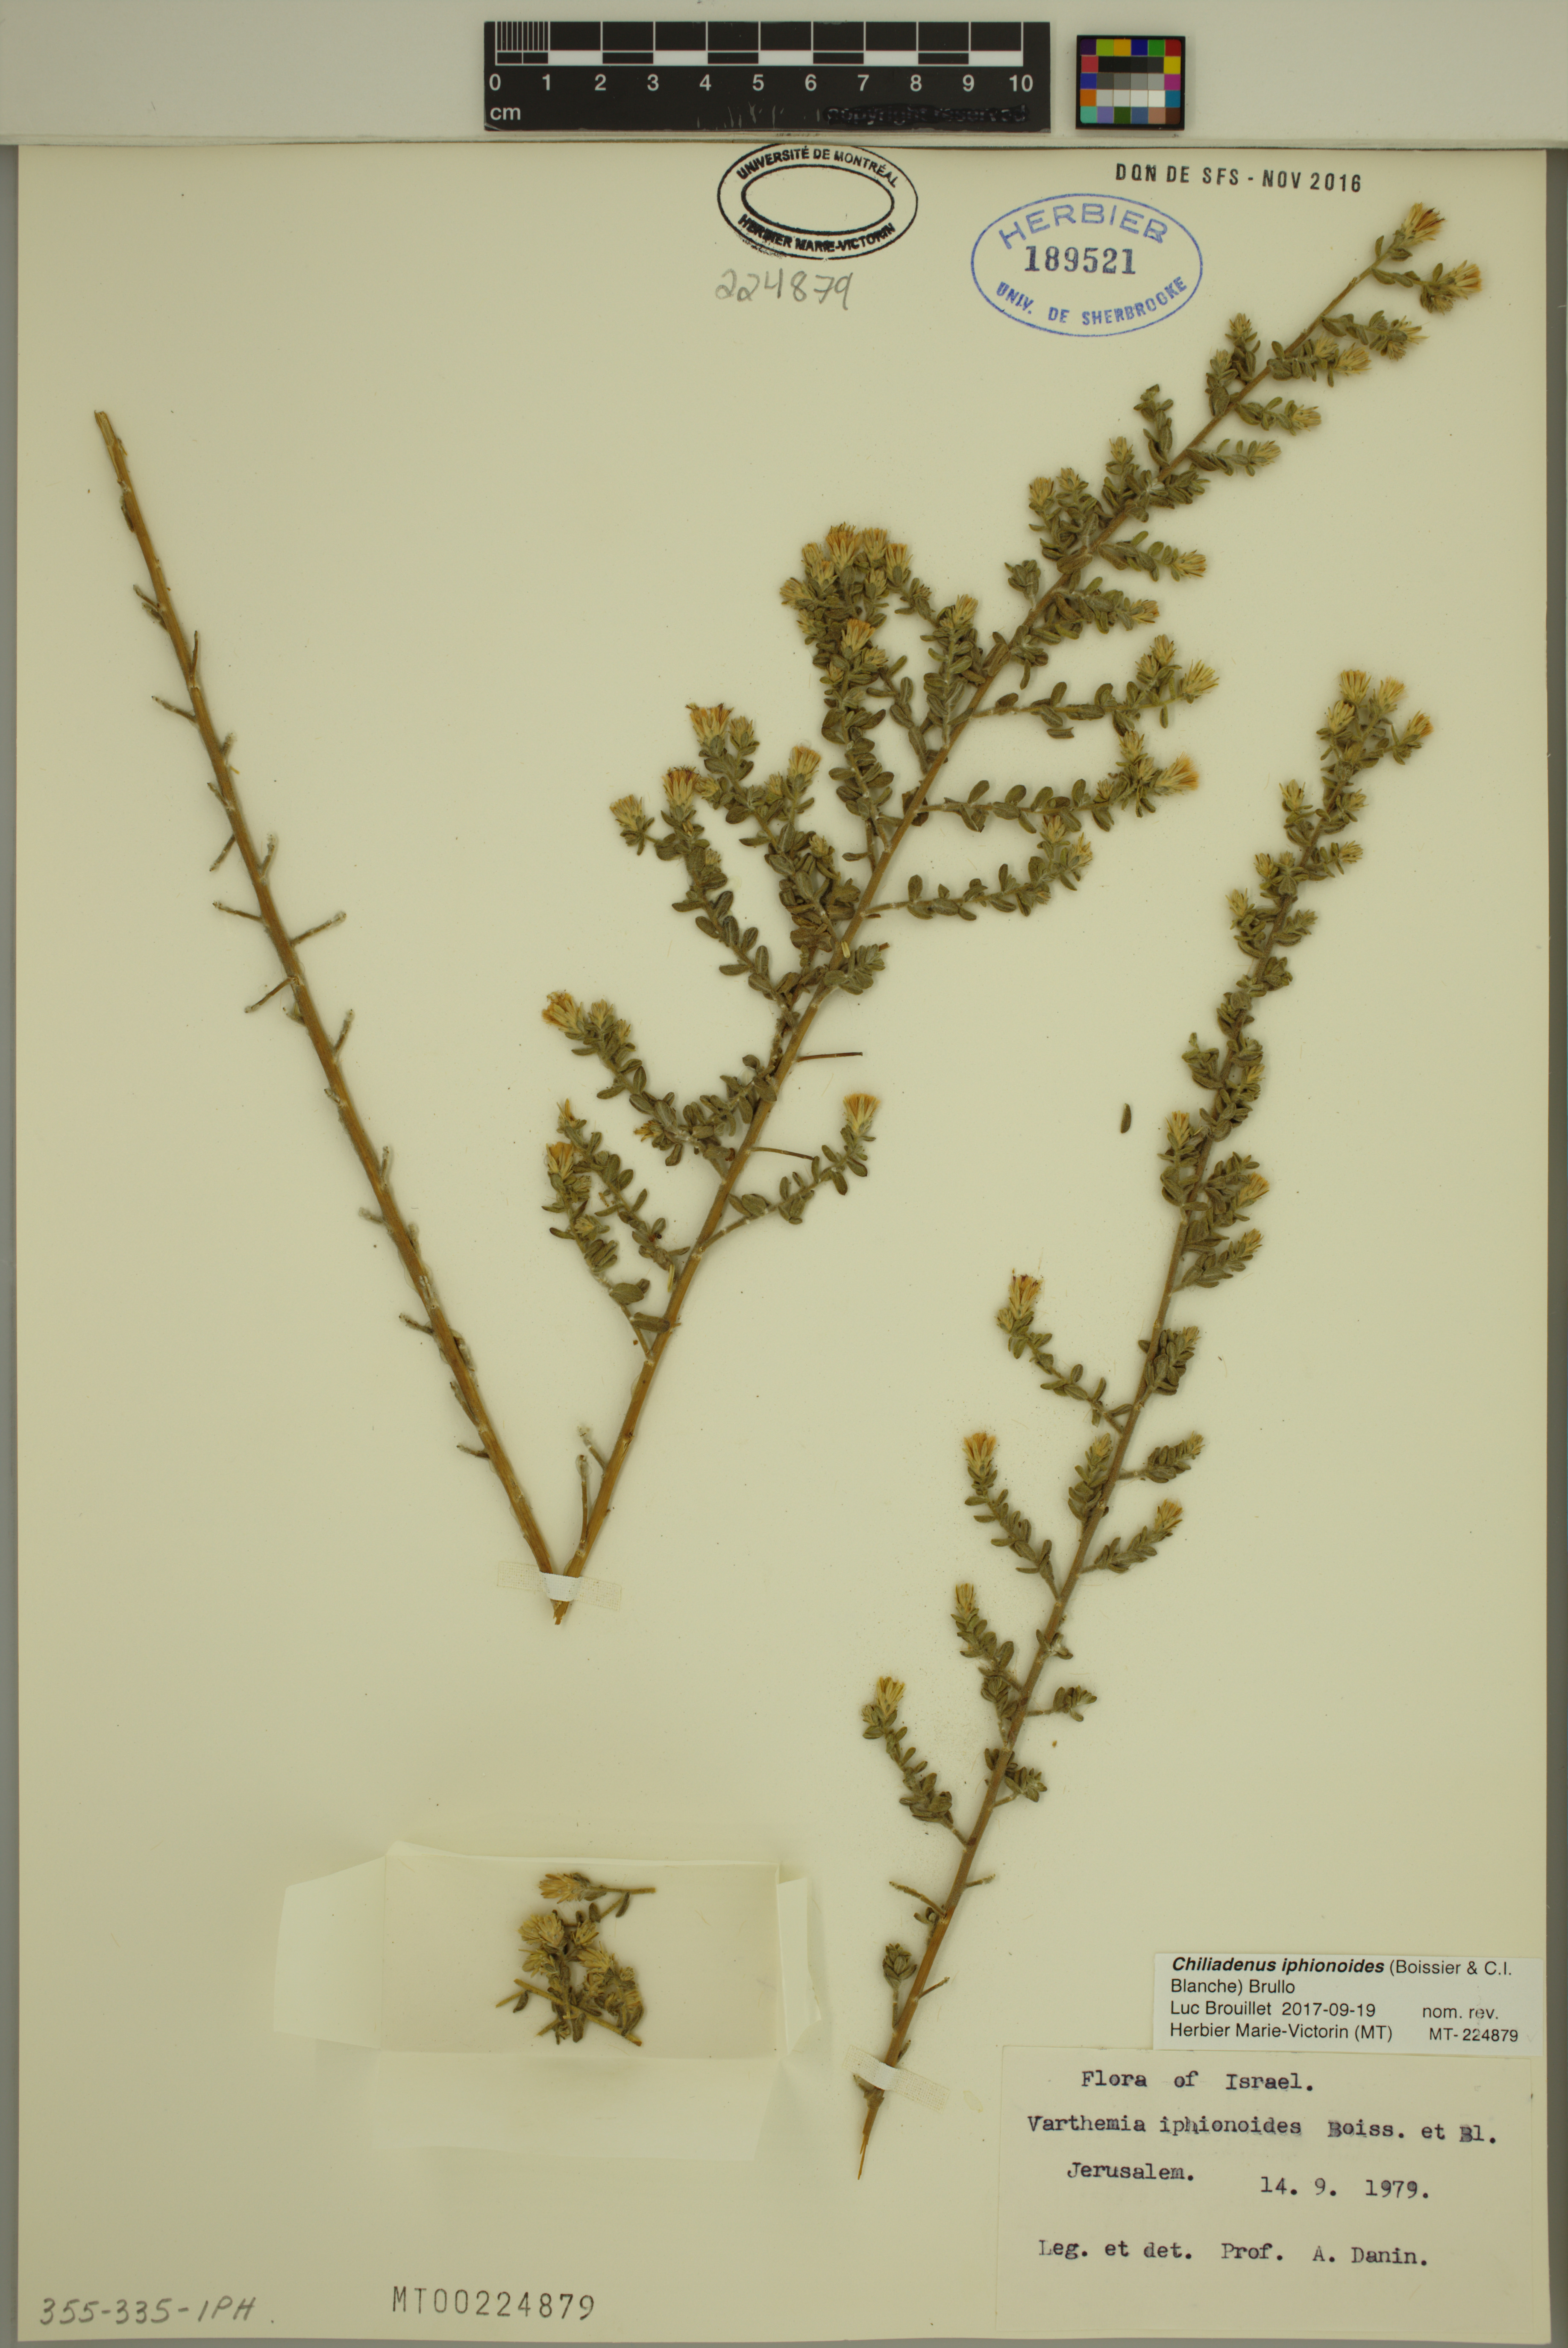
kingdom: Plantae
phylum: Tracheophyta
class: Magnoliopsida
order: Asterales
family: Asteraceae
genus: Chiliadenus
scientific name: Chiliadenus iphionoides
